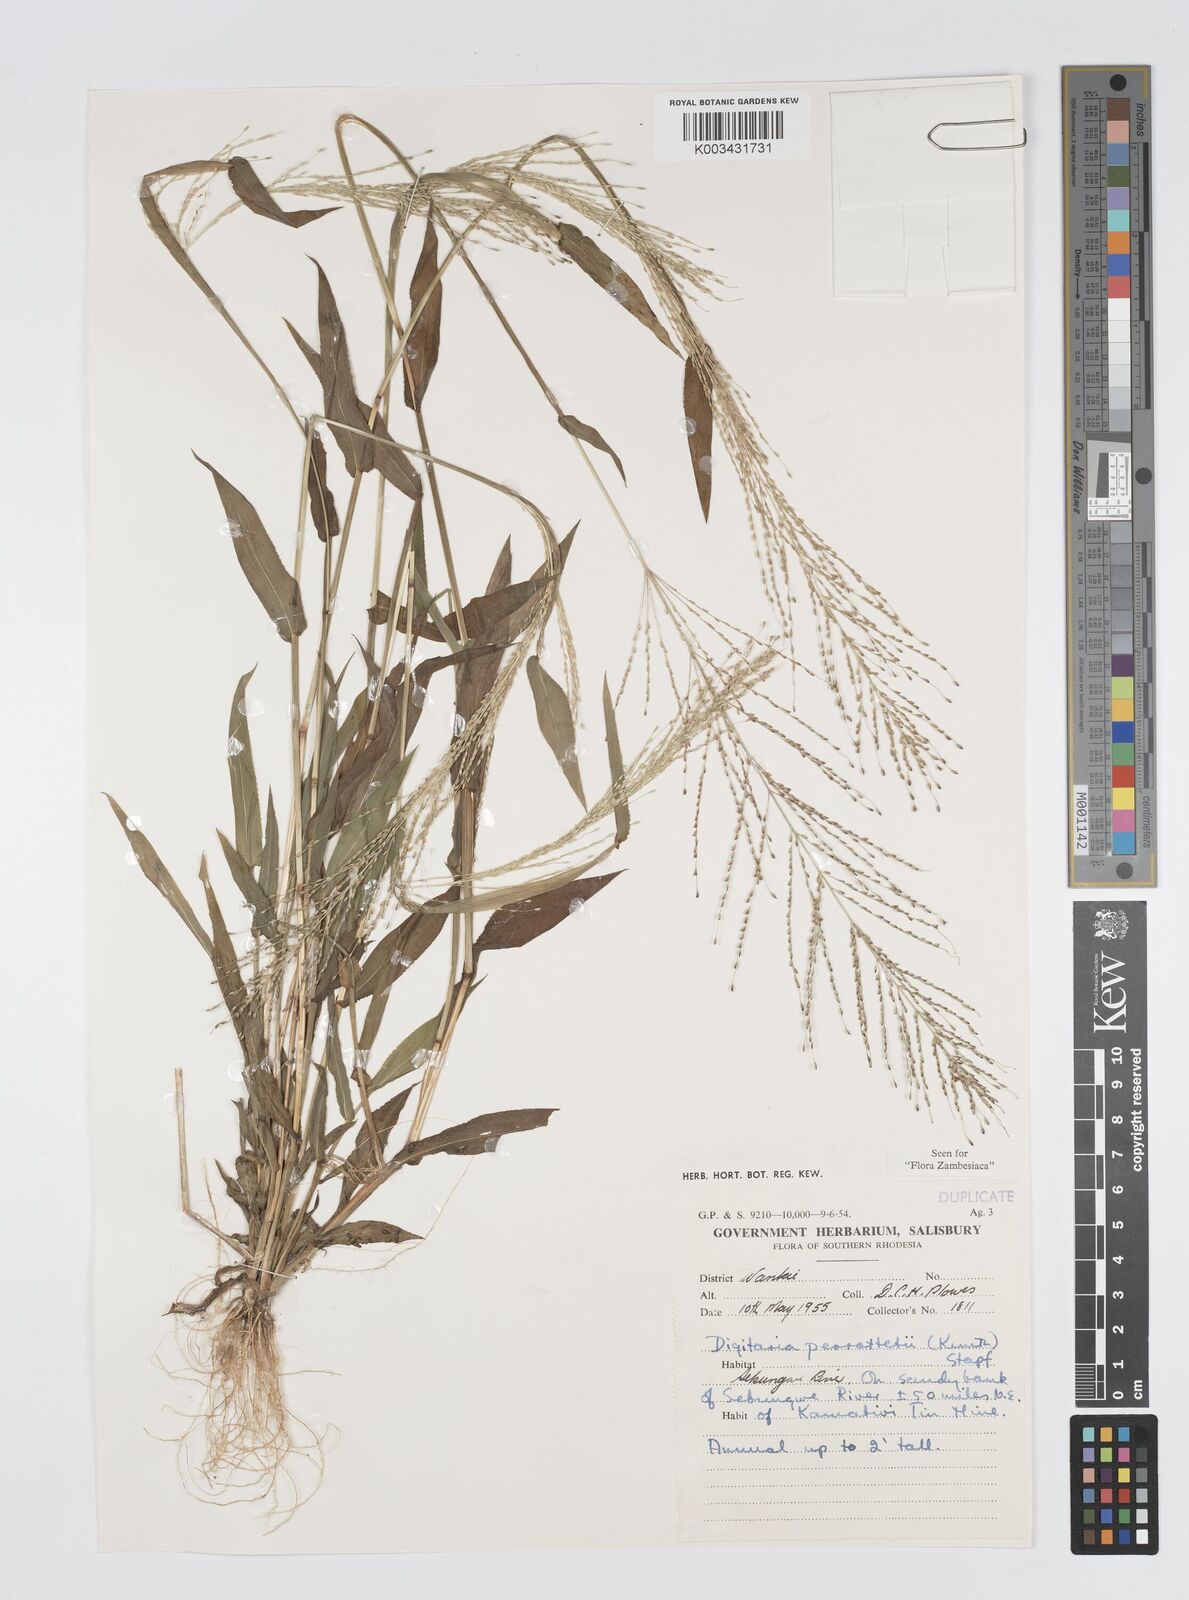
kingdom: Plantae
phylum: Tracheophyta
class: Liliopsida
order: Poales
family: Poaceae
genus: Digitaria
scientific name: Digitaria perrottetii
